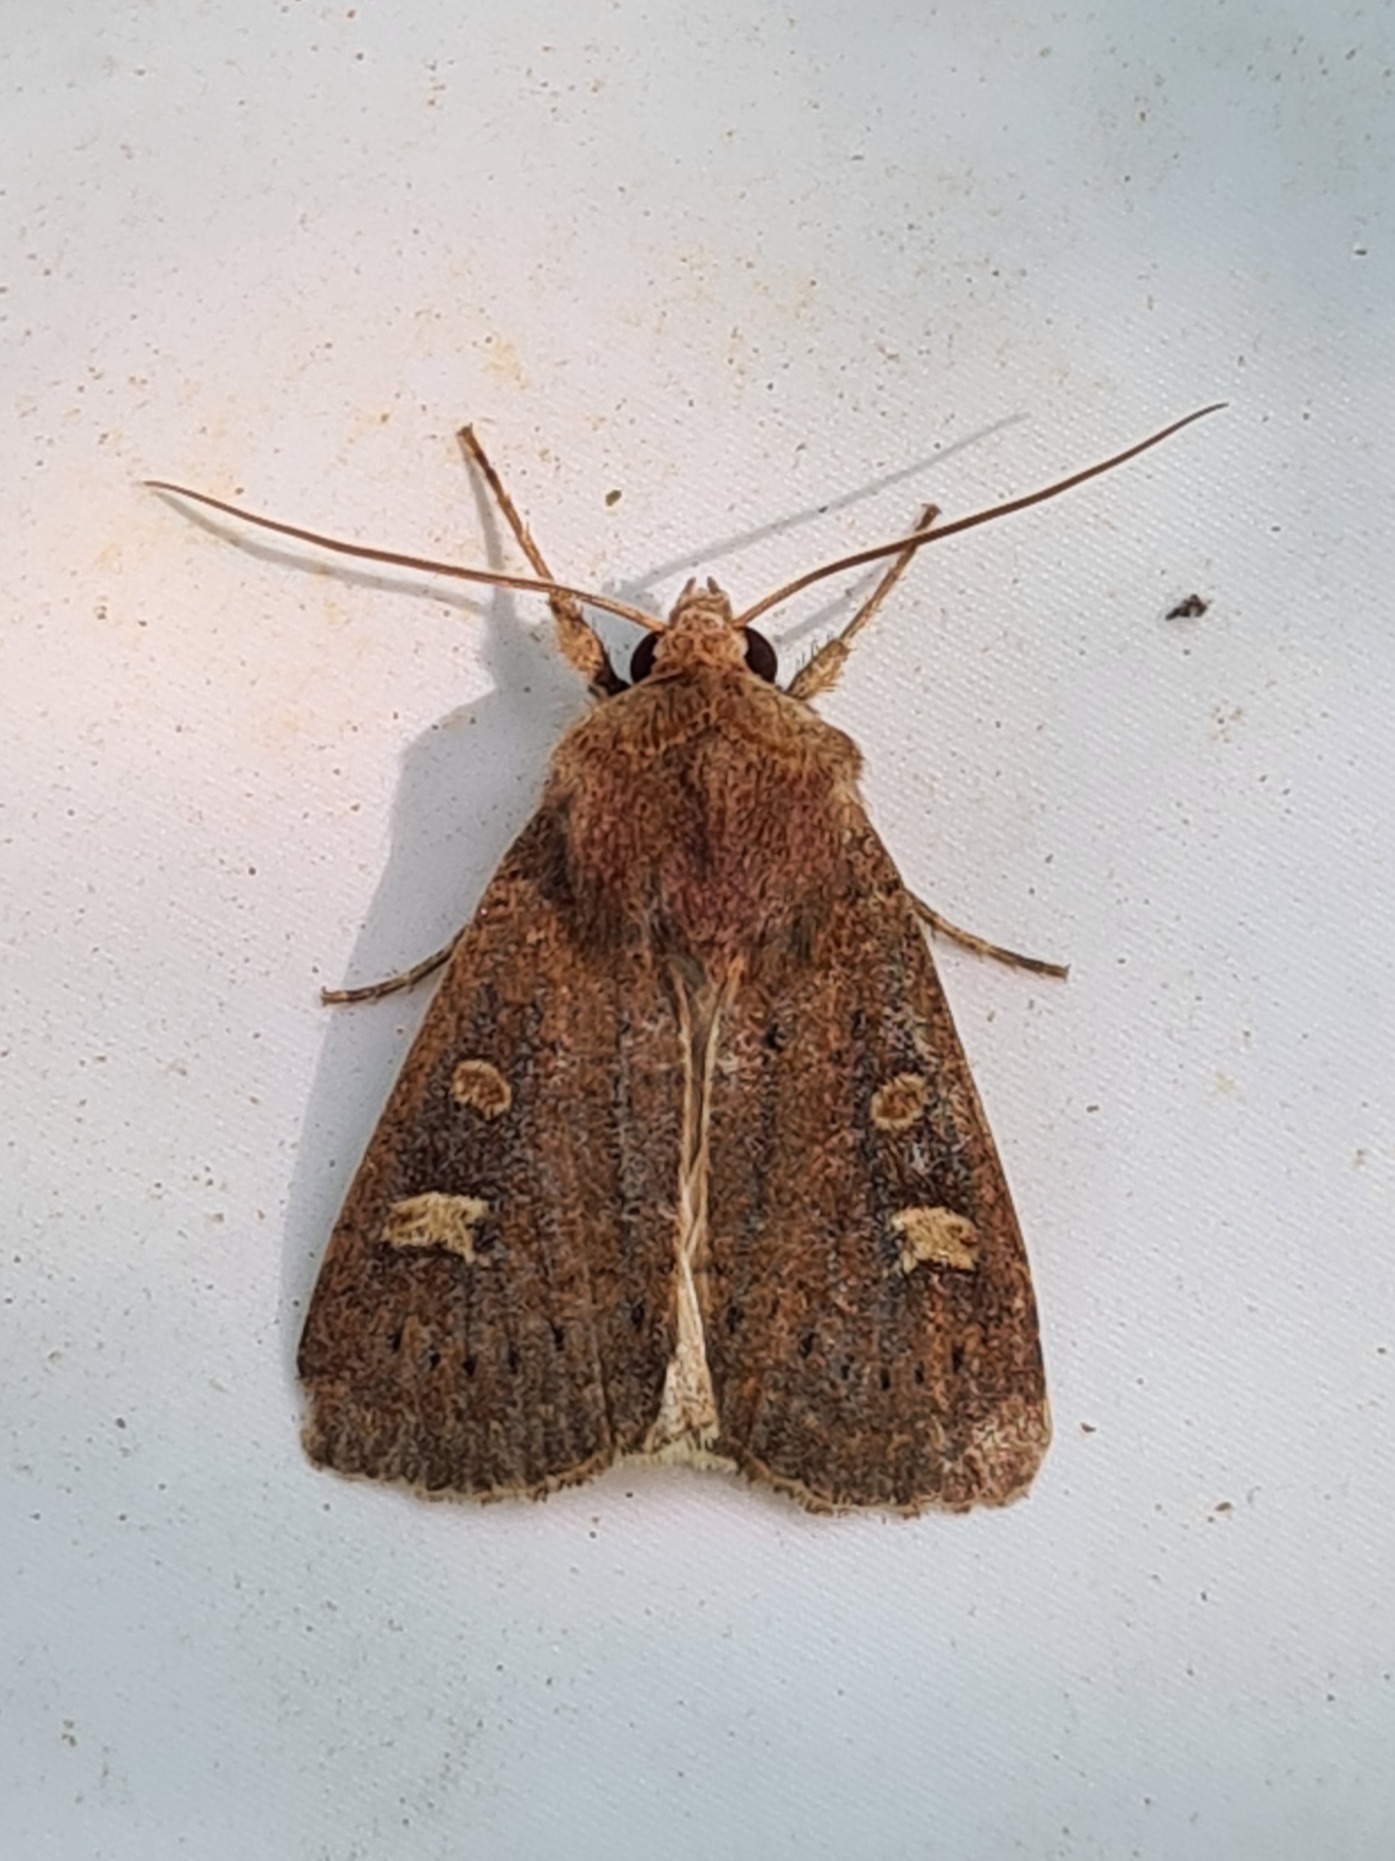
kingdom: Animalia
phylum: Arthropoda
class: Insecta
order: Lepidoptera
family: Noctuidae
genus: Xestia
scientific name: Xestia xanthographa
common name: Gulmærket glansugle
